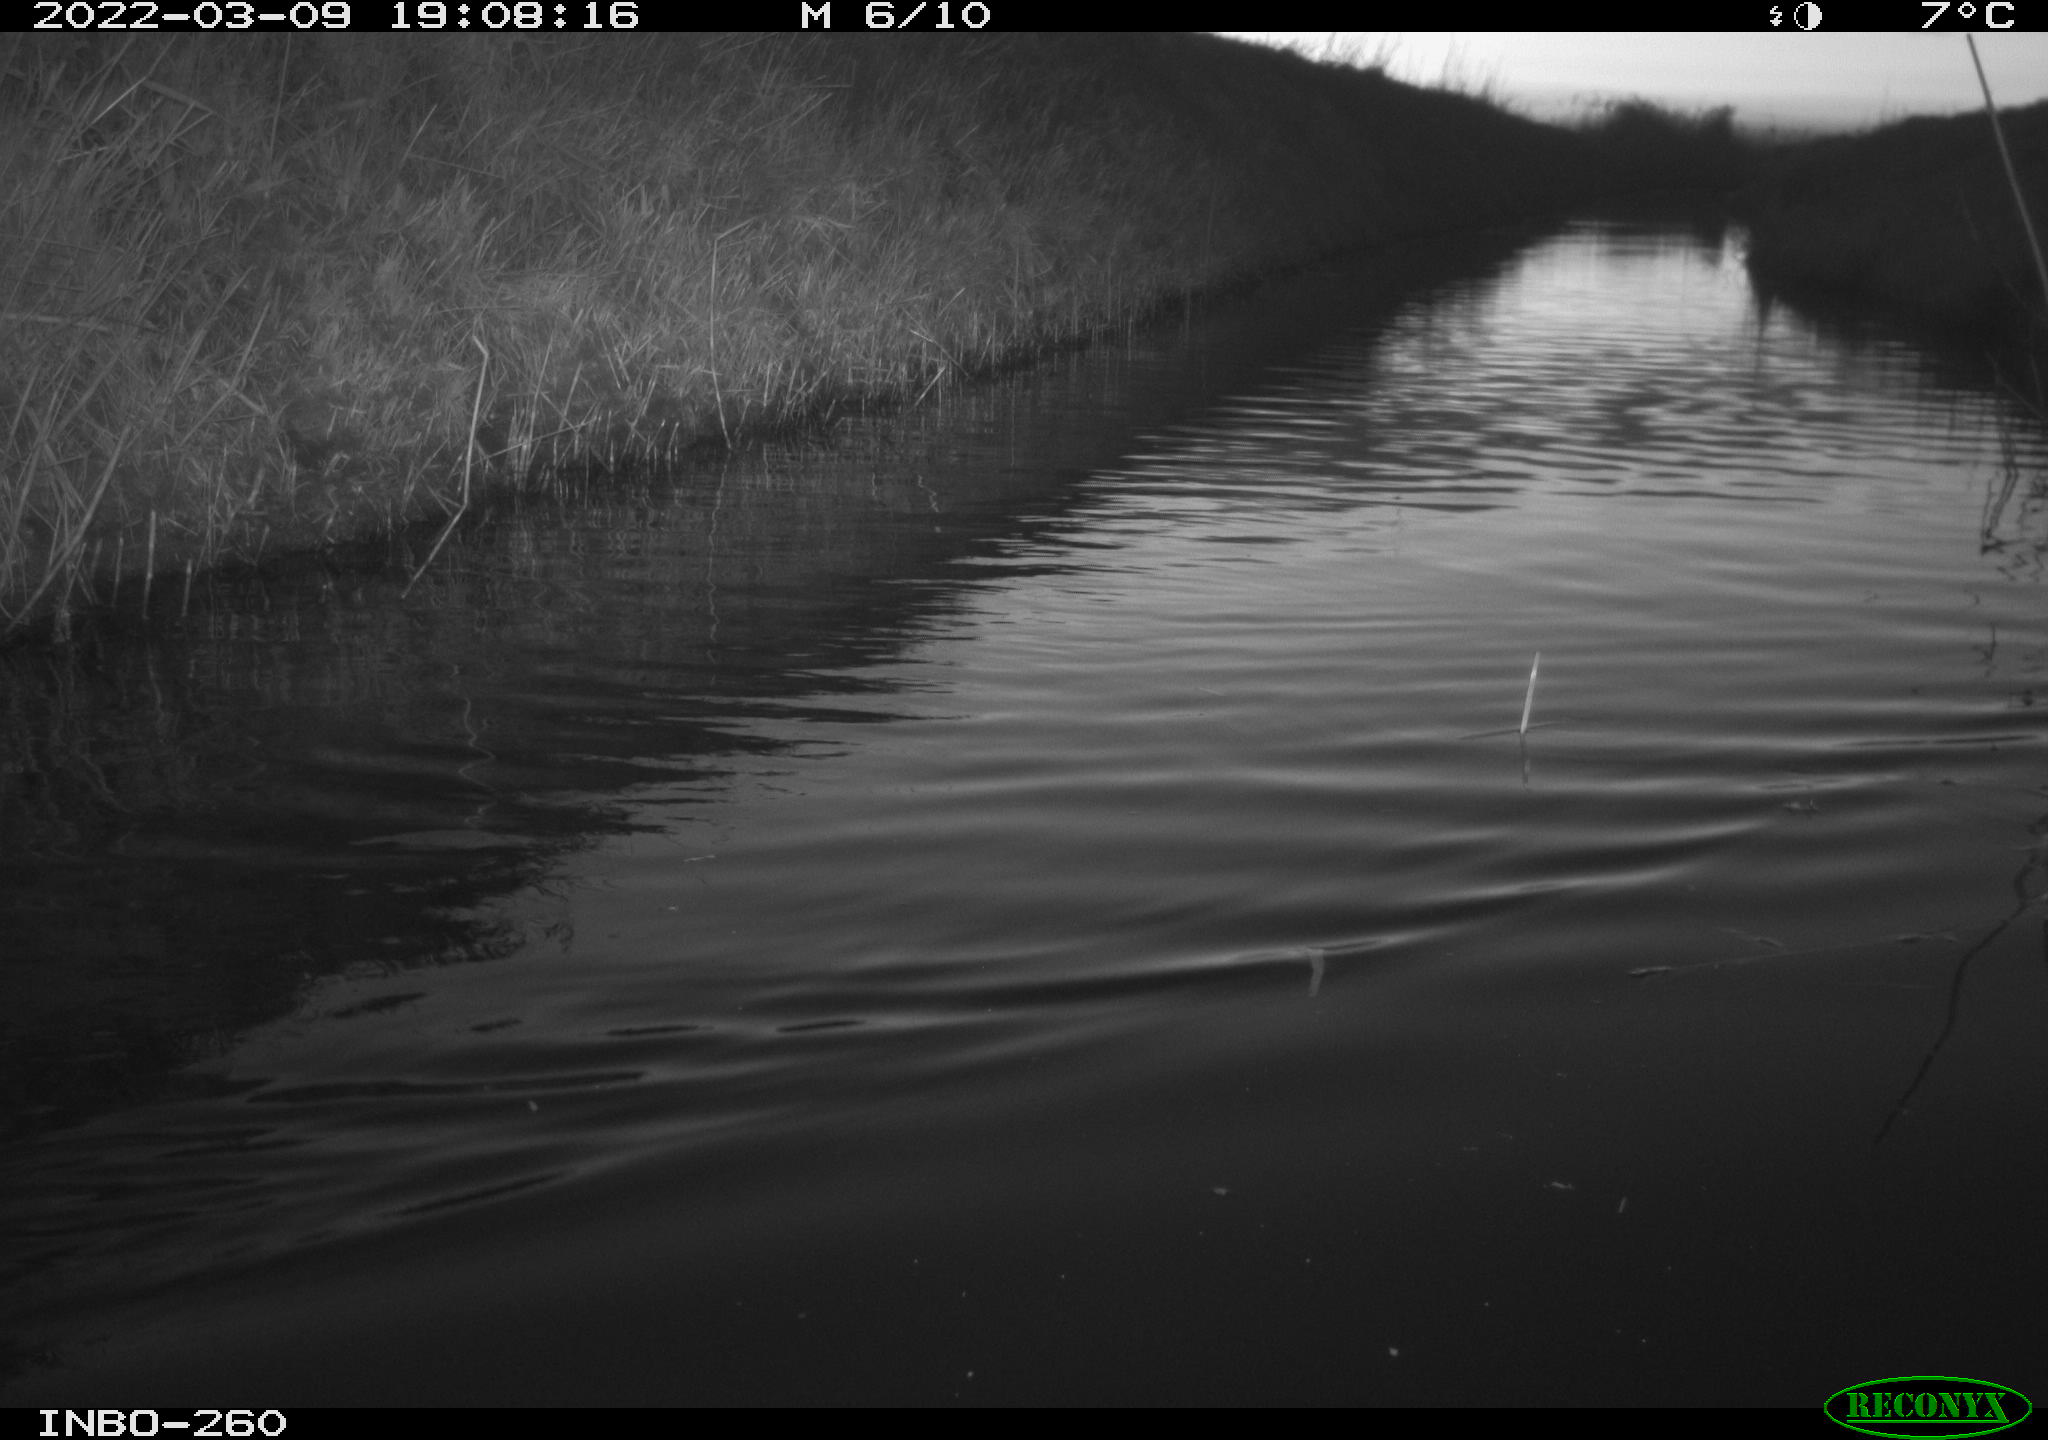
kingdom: Animalia
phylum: Chordata
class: Aves
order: Gruiformes
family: Rallidae
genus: Fulica
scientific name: Fulica atra
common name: Eurasian coot
